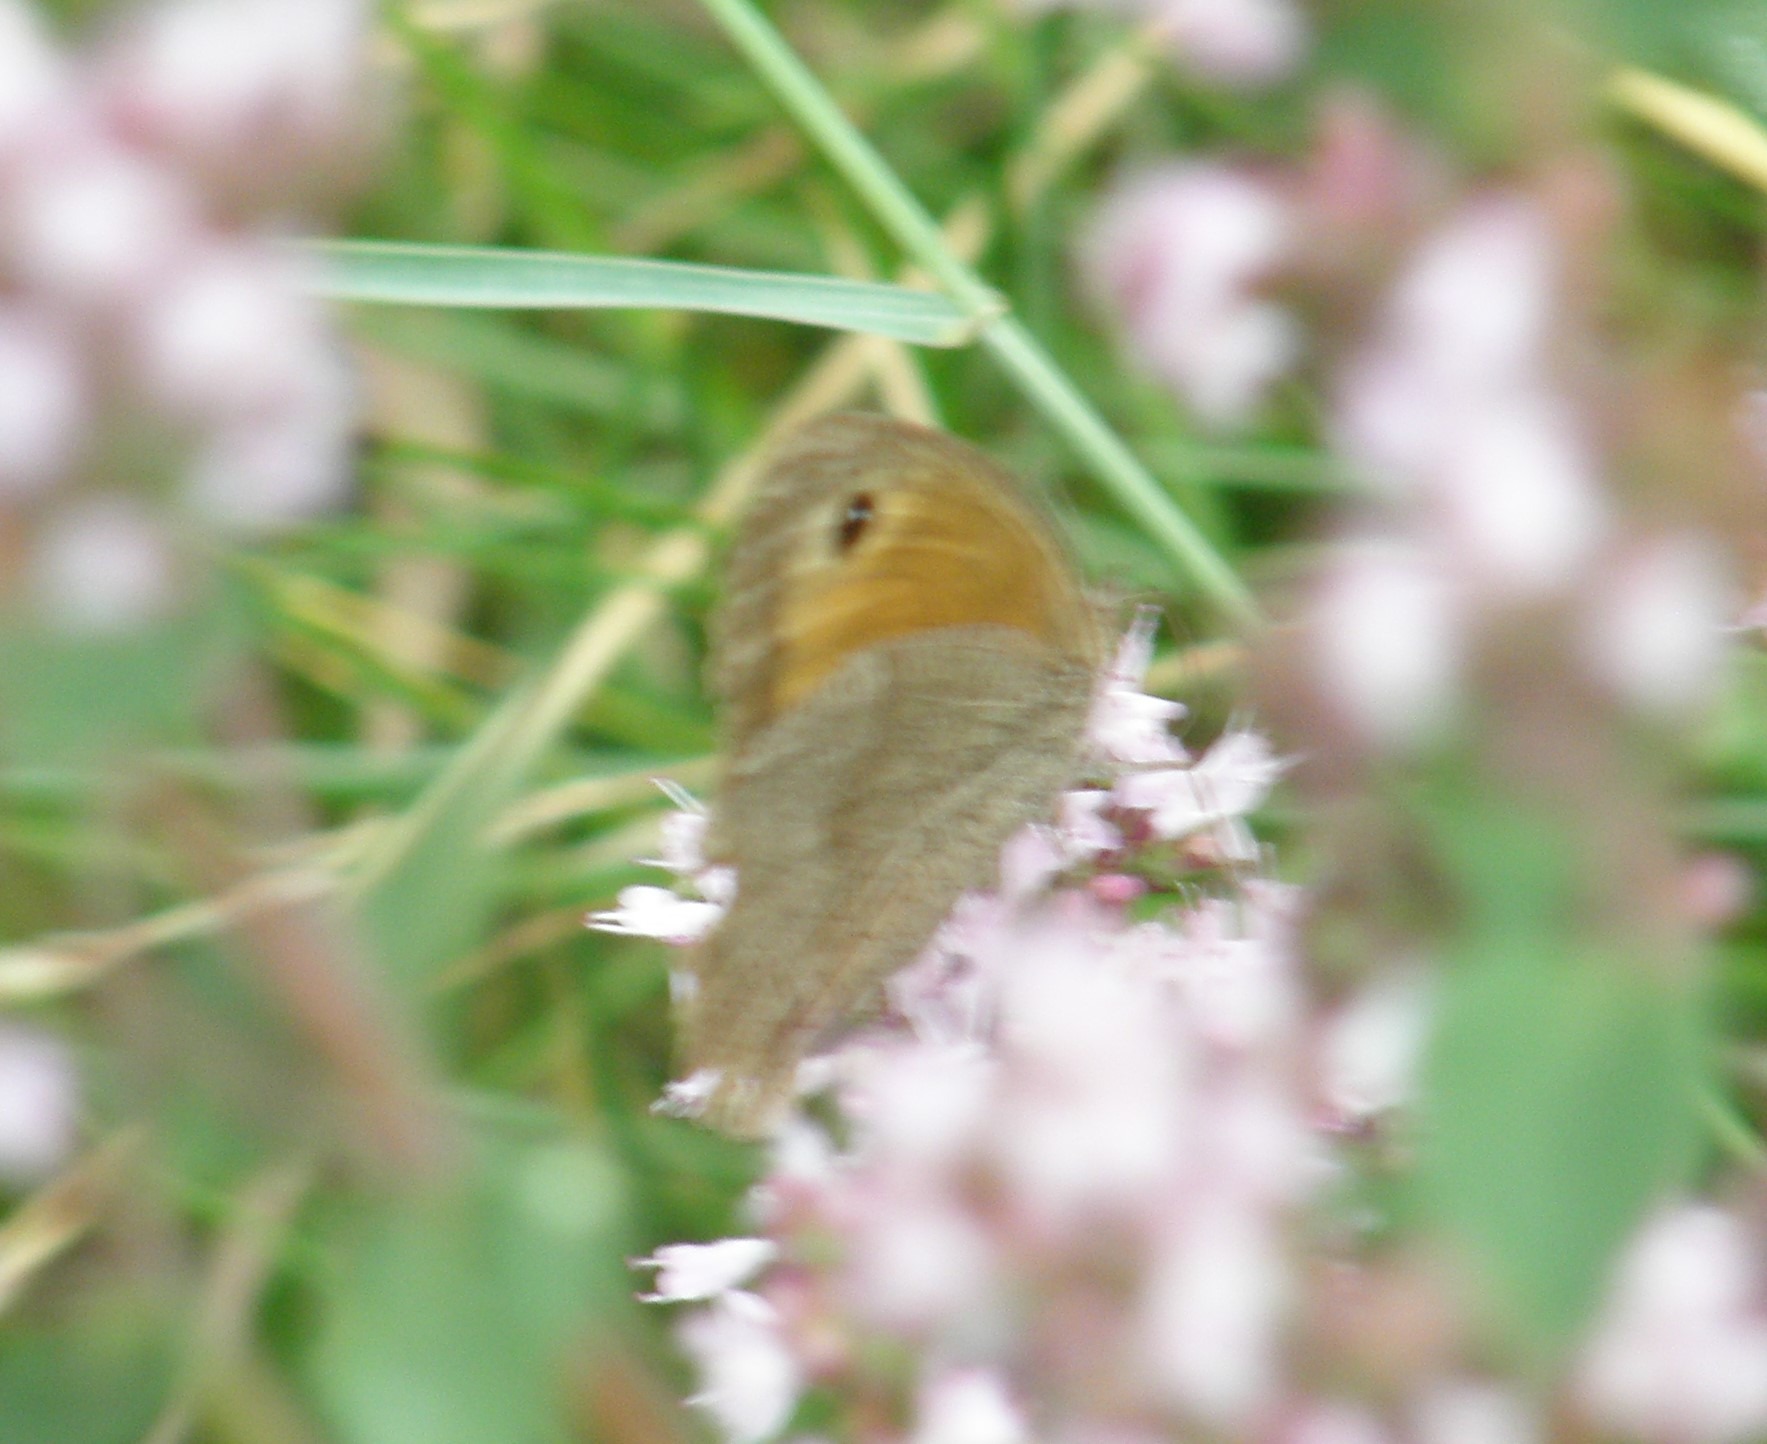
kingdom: Animalia
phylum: Arthropoda
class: Insecta
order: Lepidoptera
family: Nymphalidae
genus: Maniola
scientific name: Maniola jurtina
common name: Græsrandøje
